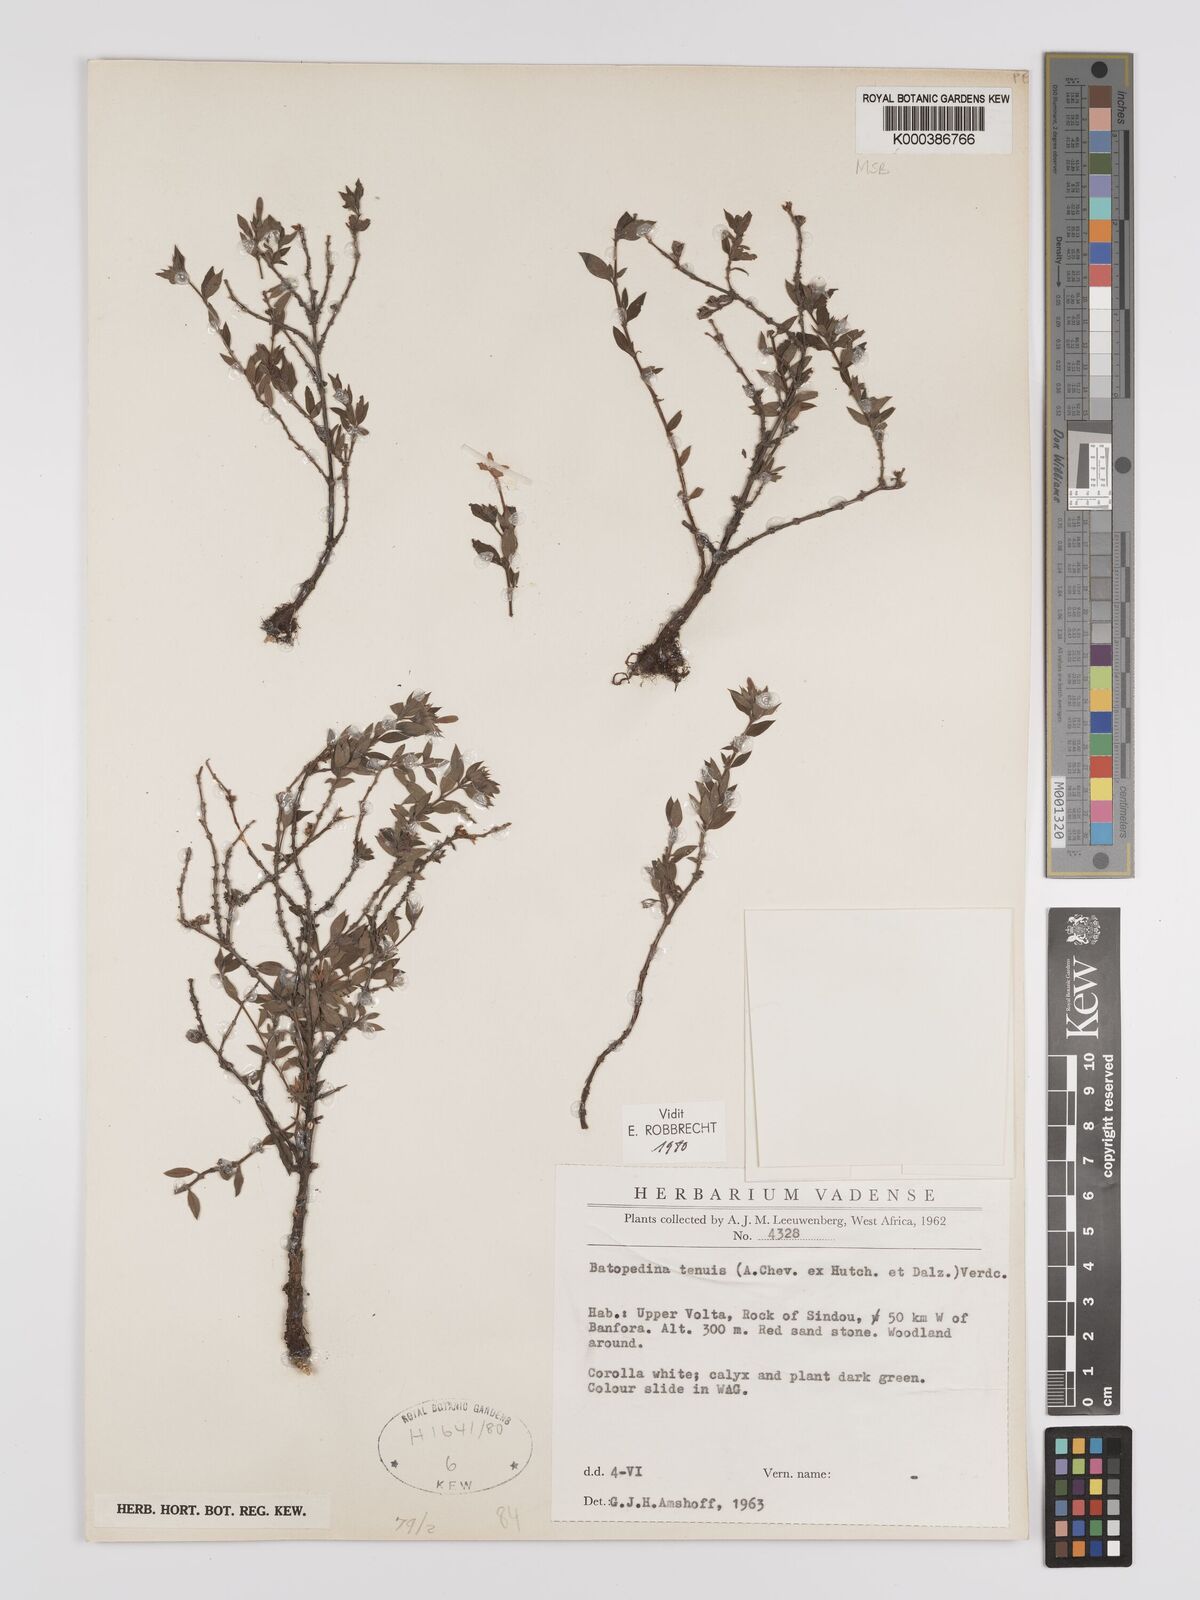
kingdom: Plantae
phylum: Tracheophyta
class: Magnoliopsida
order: Gentianales
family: Rubiaceae
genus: Batopedina
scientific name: Batopedina tenuis
